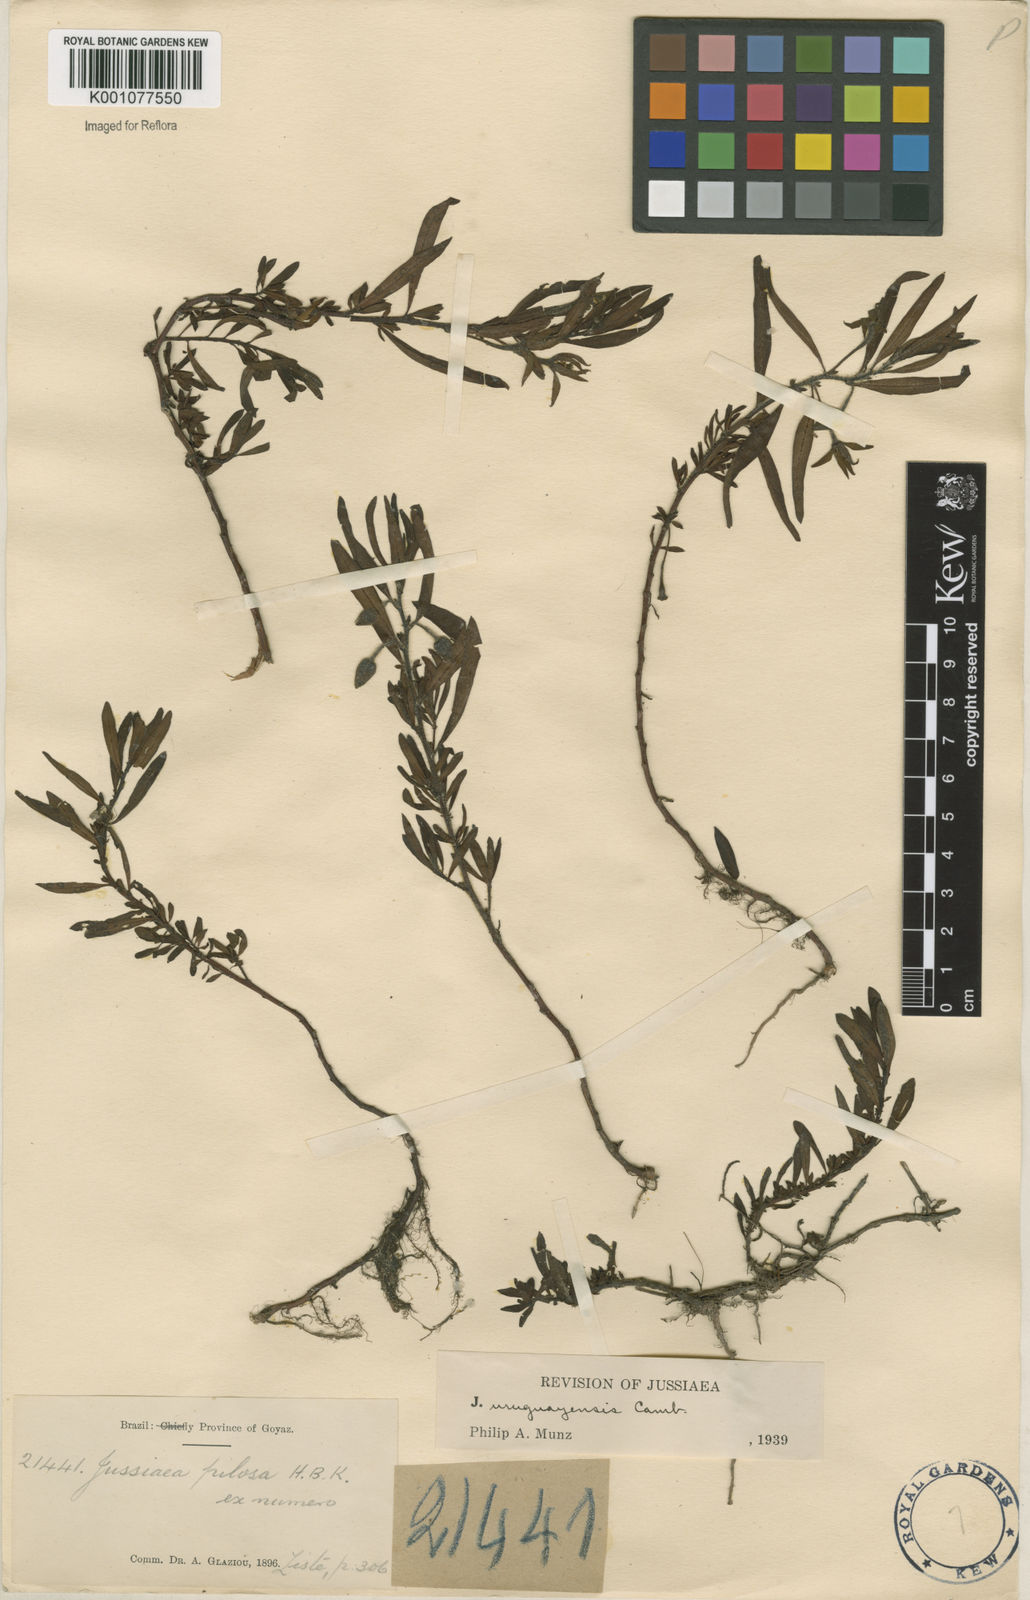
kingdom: Plantae
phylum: Tracheophyta
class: Magnoliopsida
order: Myrtales
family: Onagraceae
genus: Ludwigia
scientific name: Ludwigia grandiflora
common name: Water primrose
